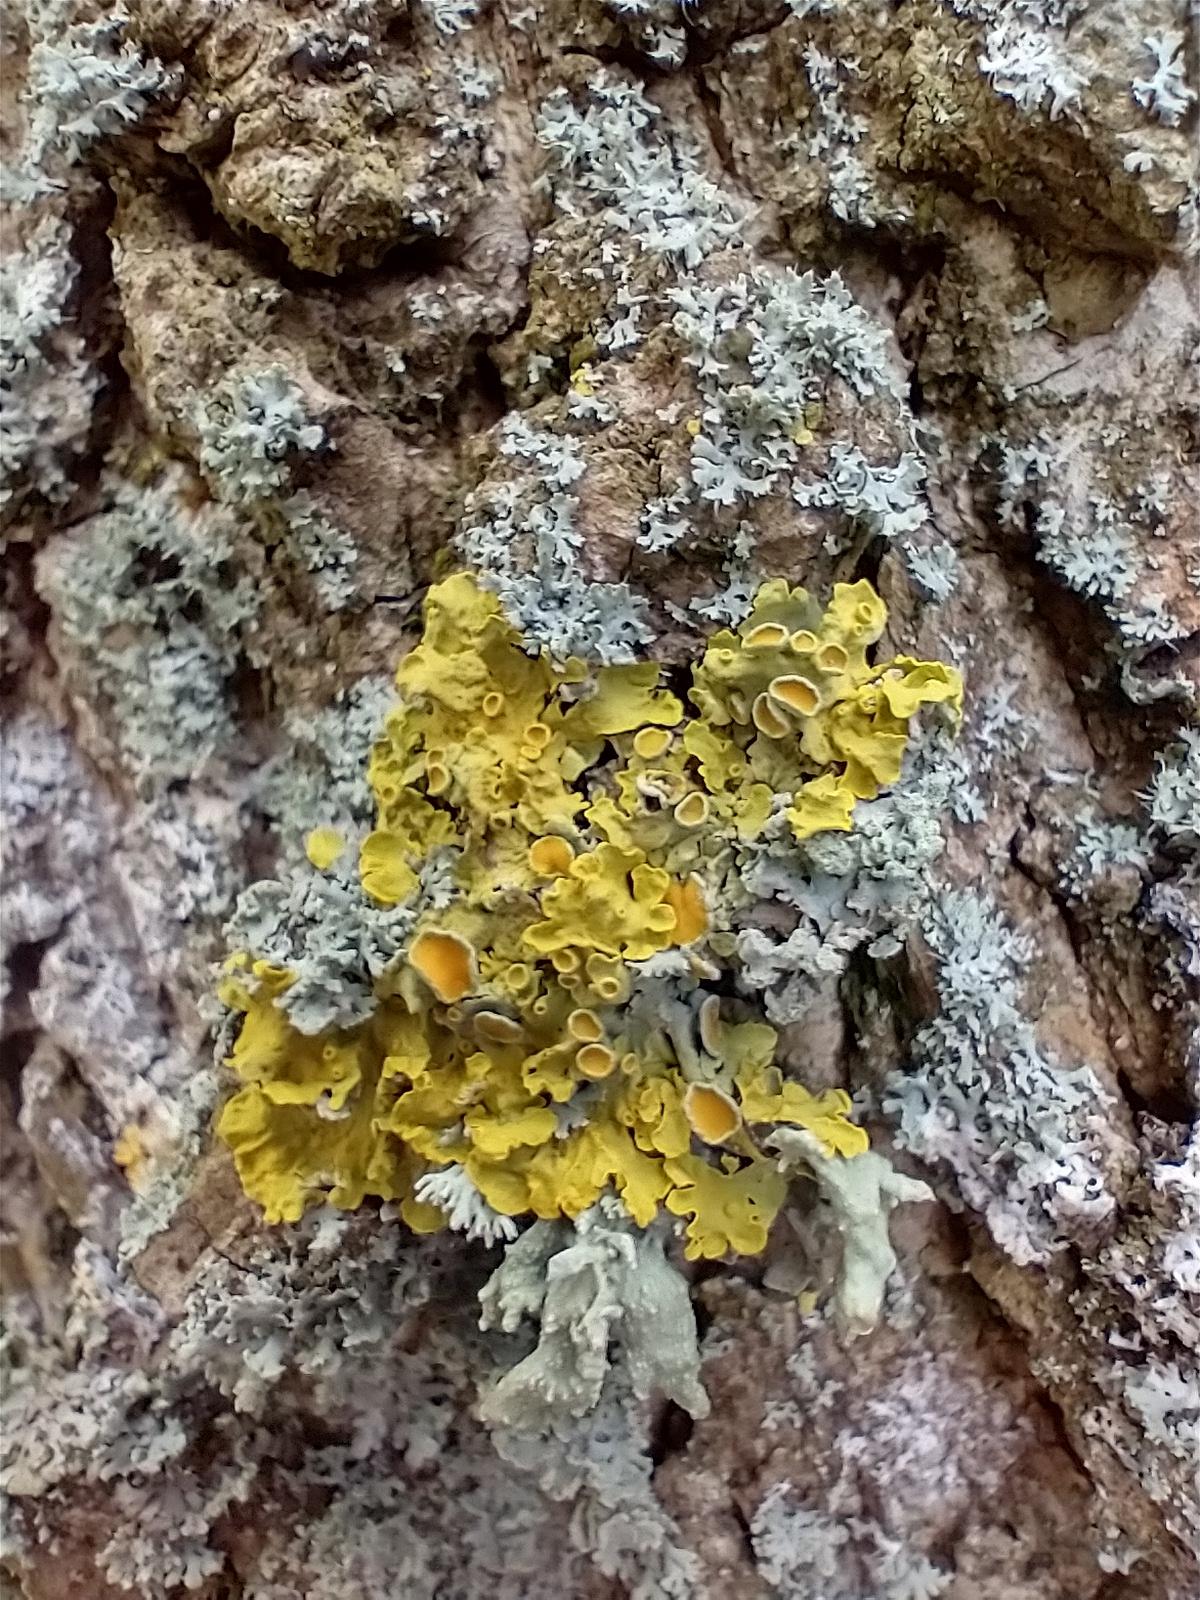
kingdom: Fungi
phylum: Ascomycota
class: Lecanoromycetes
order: Teloschistales
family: Teloschistaceae
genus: Xanthoria
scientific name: Xanthoria parietina
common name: Almindelig væggelav
